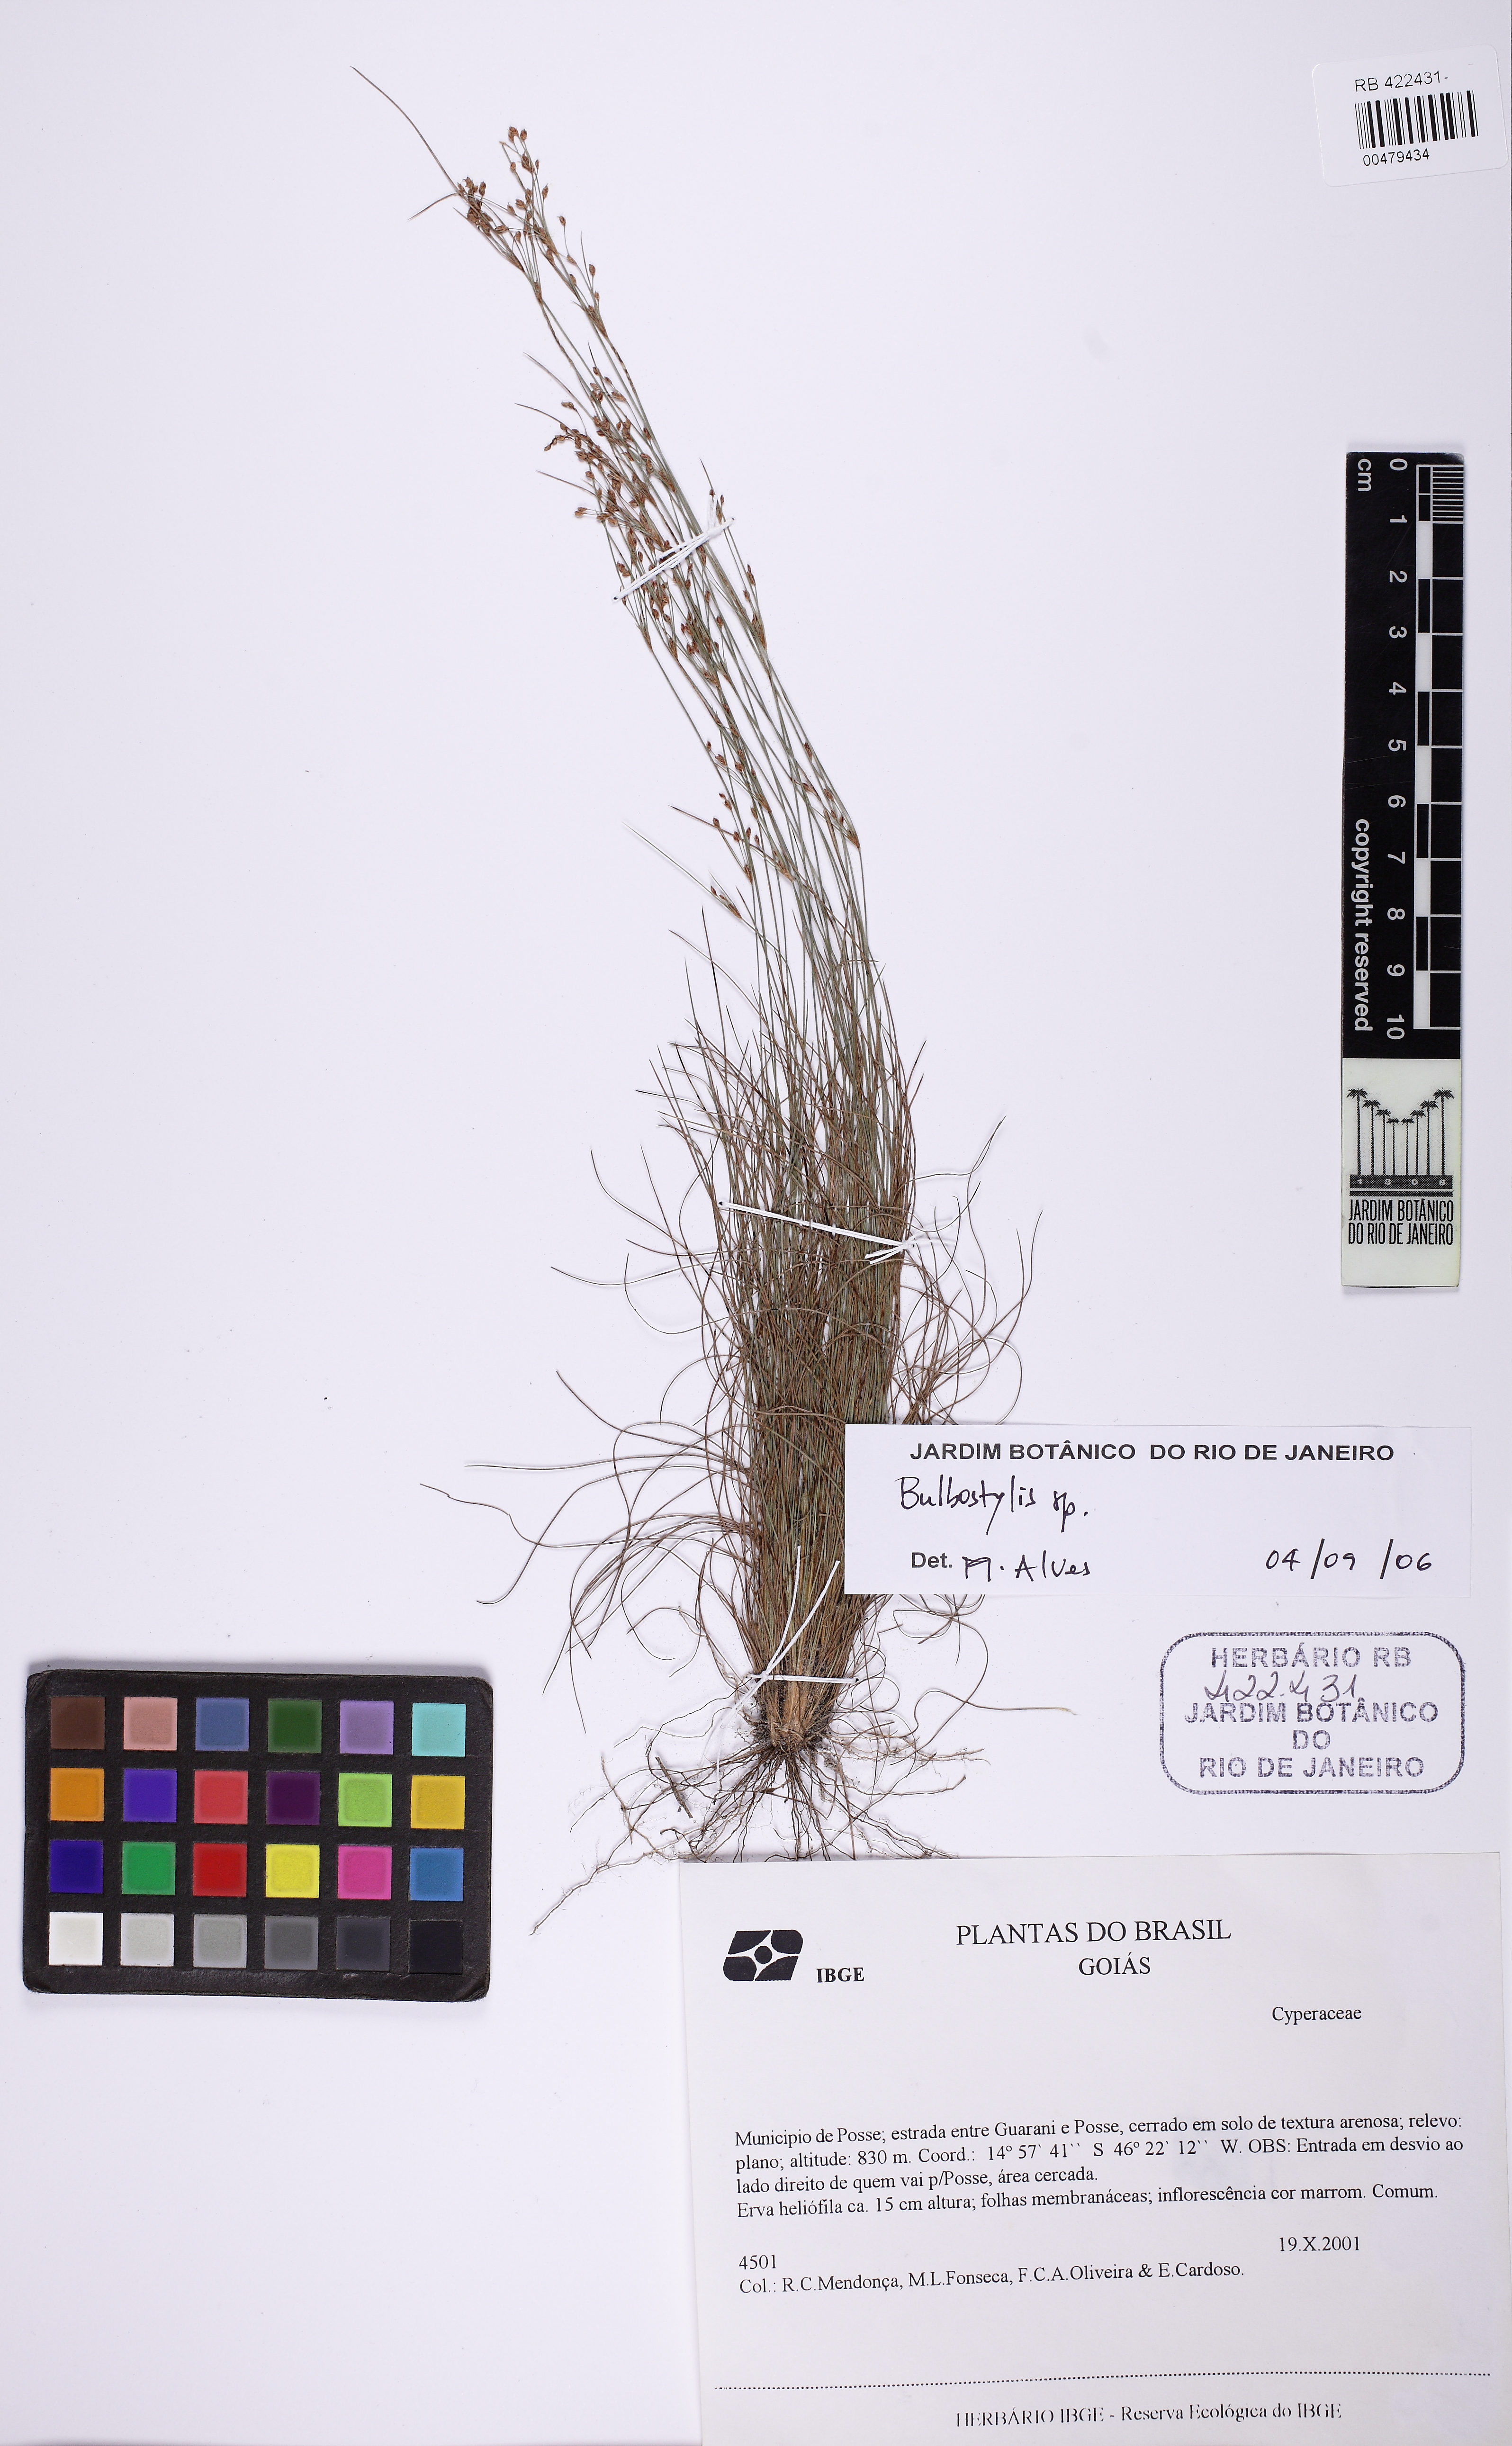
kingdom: Plantae
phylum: Tracheophyta
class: Liliopsida
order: Poales
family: Cyperaceae
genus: Bulbostylis
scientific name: Bulbostylis
